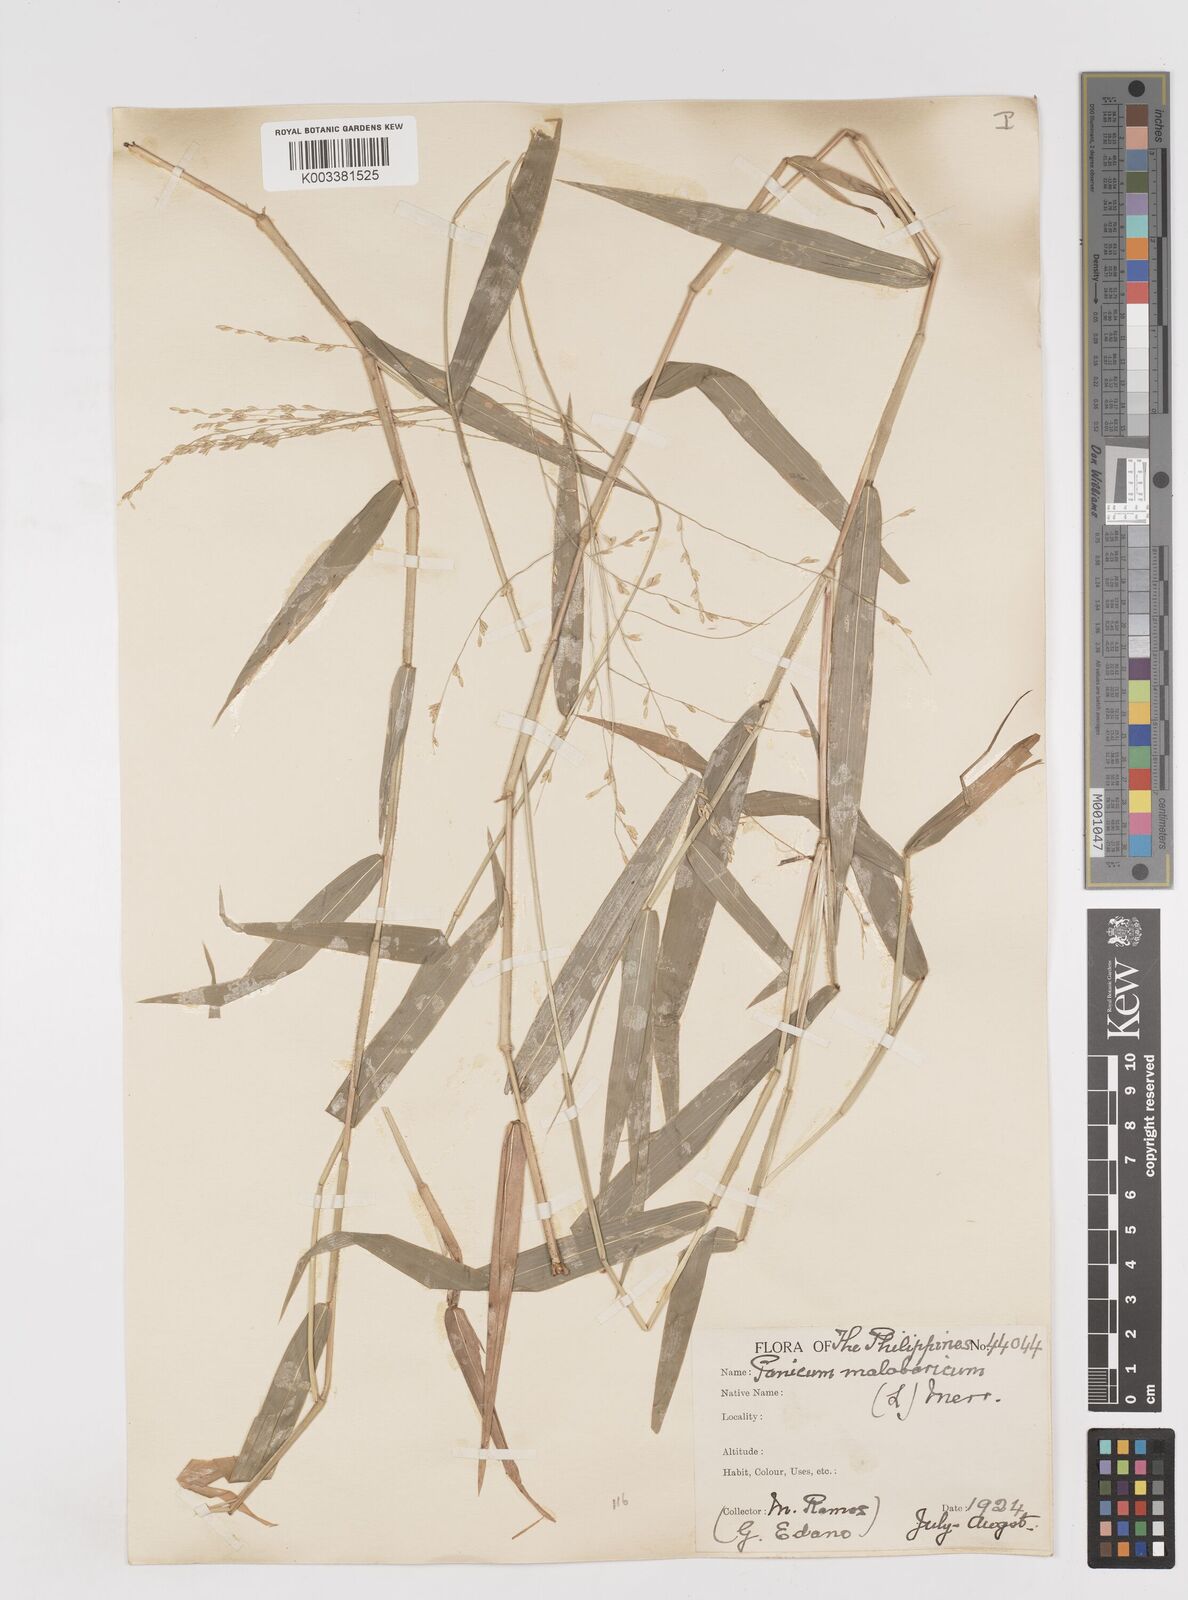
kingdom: Plantae
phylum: Tracheophyta
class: Liliopsida
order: Poales
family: Poaceae
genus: Ottochloa
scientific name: Ottochloa nodosa
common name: Slender-panic grass
